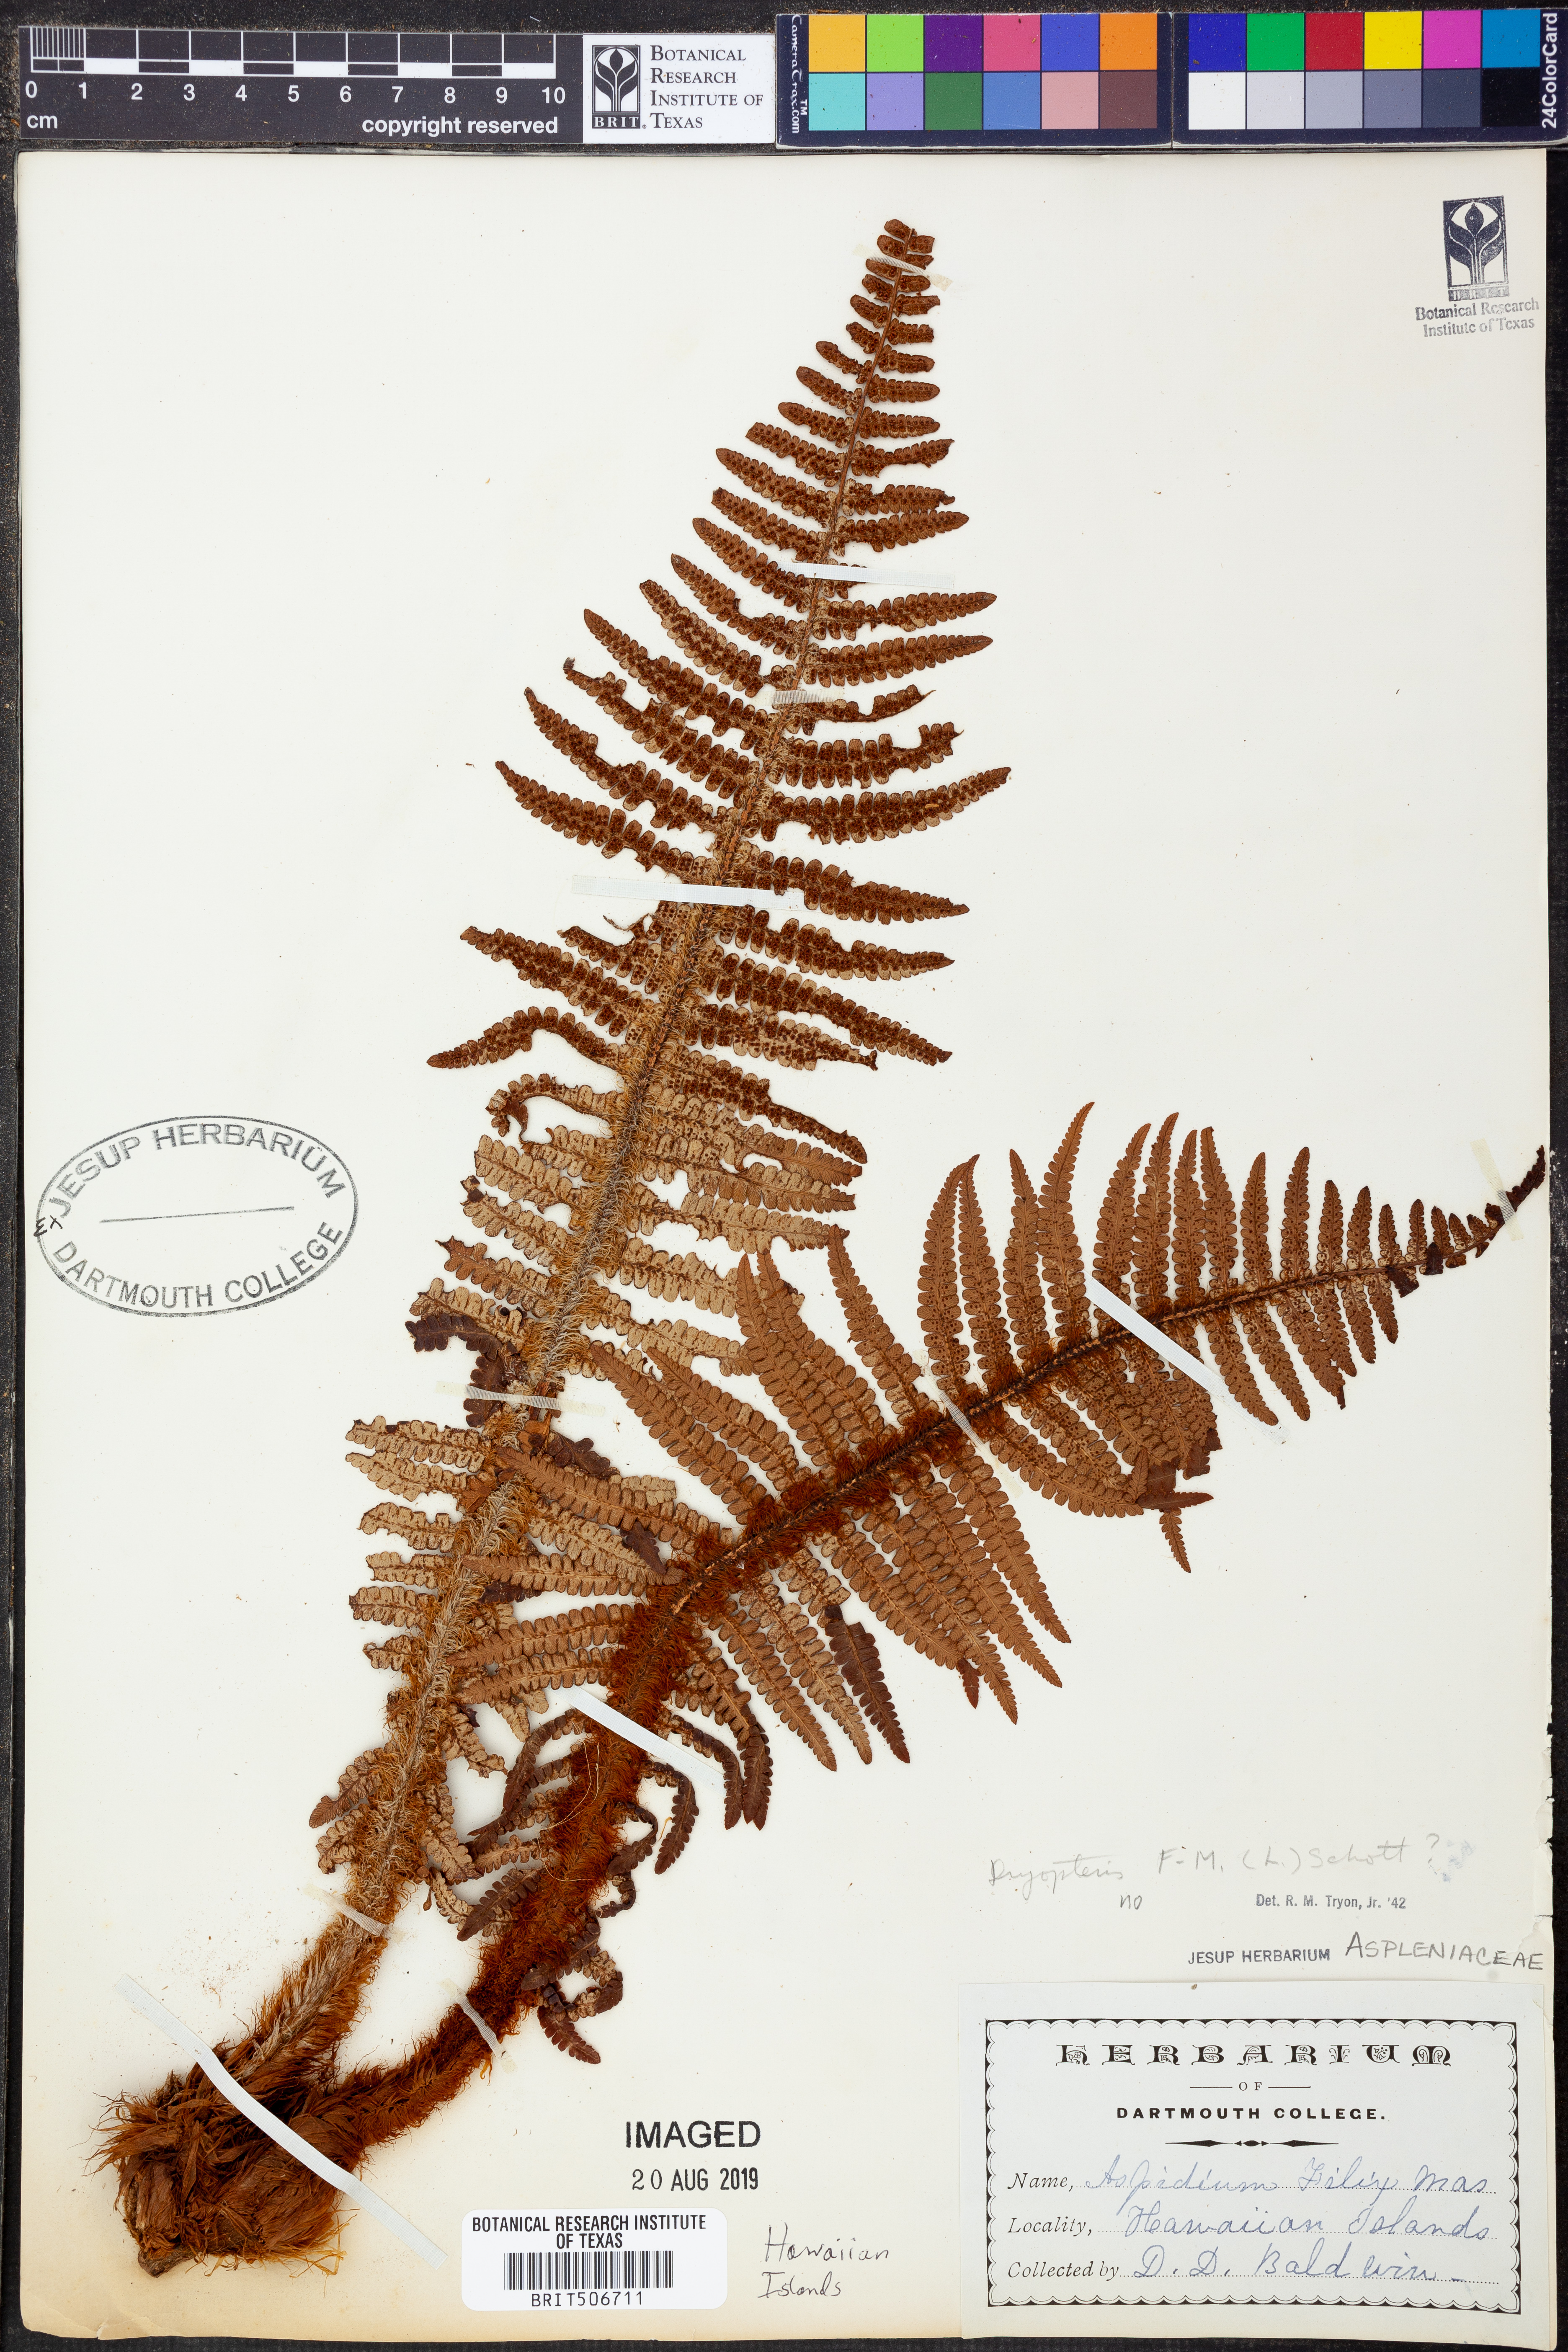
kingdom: Plantae
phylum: Tracheophyta
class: Polypodiopsida
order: Polypodiales
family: Dryopteridaceae
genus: Dryopteris
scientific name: Dryopteris filix-mas
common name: Male fern
